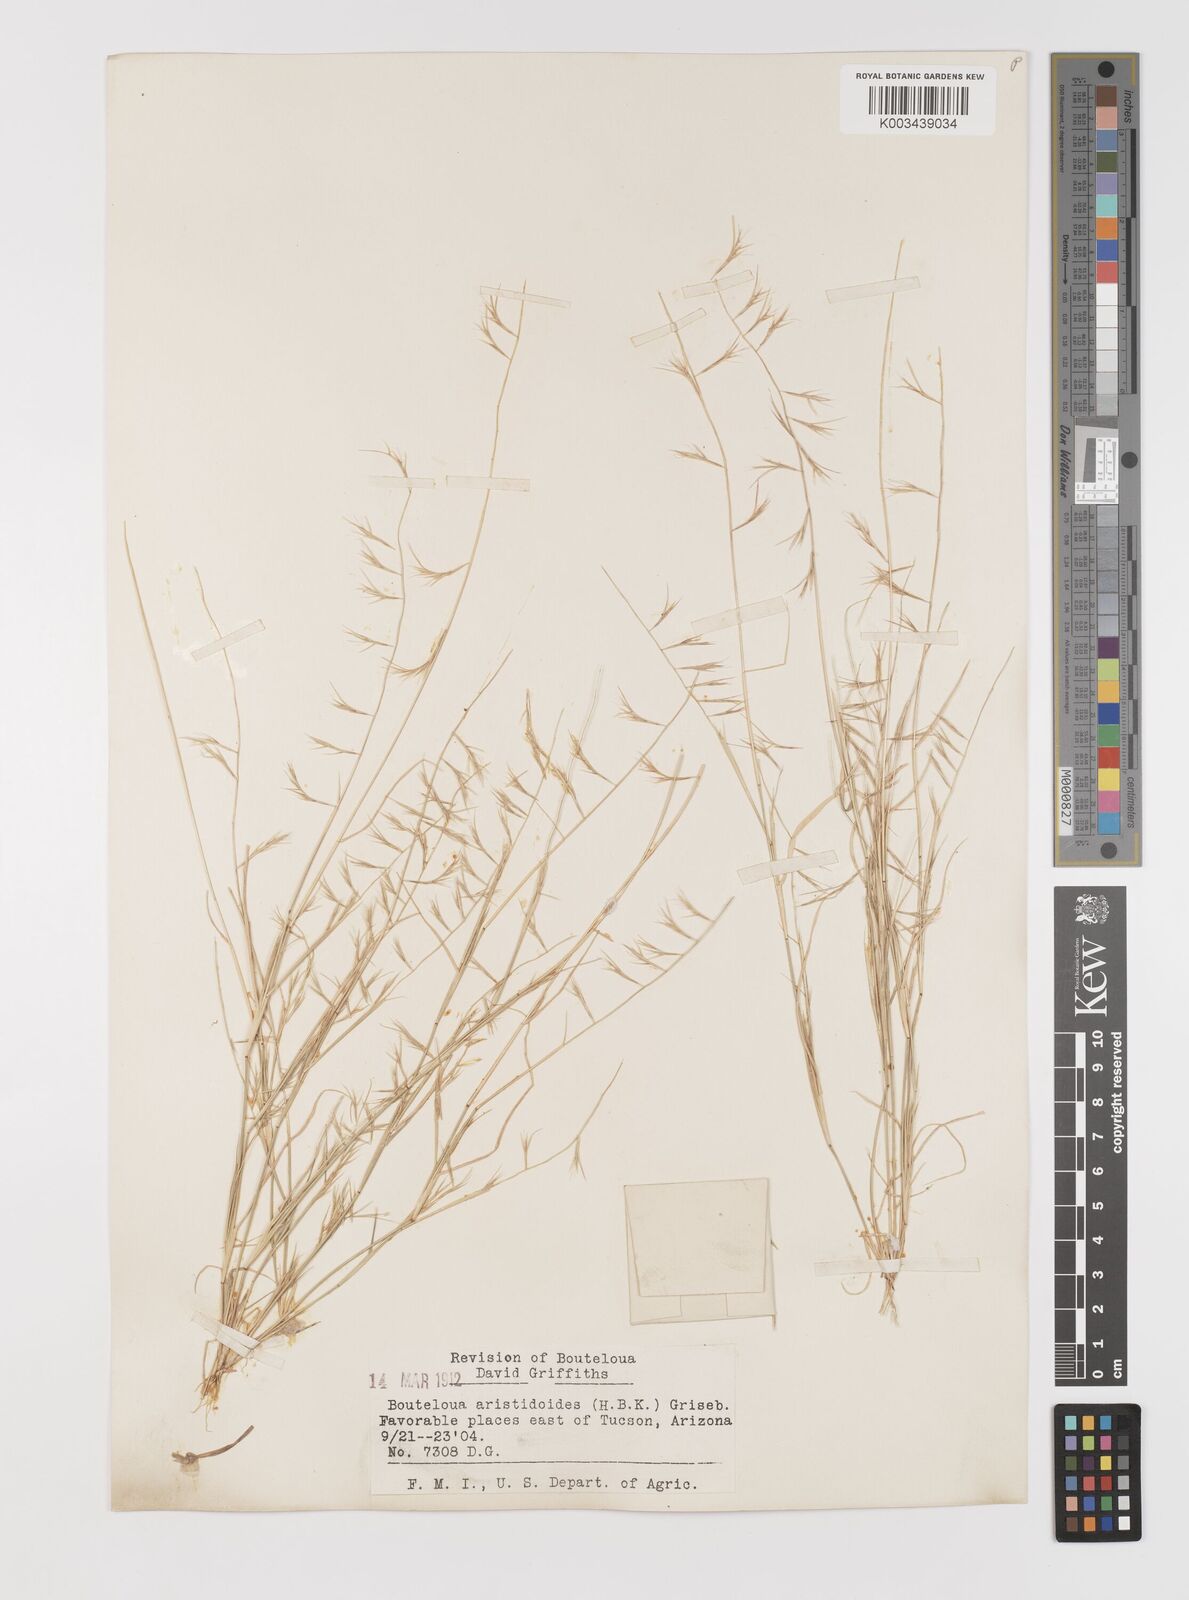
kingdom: Plantae
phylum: Tracheophyta
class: Liliopsida
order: Poales
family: Poaceae
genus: Bouteloua
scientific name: Bouteloua aristidoides
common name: Needle grama
